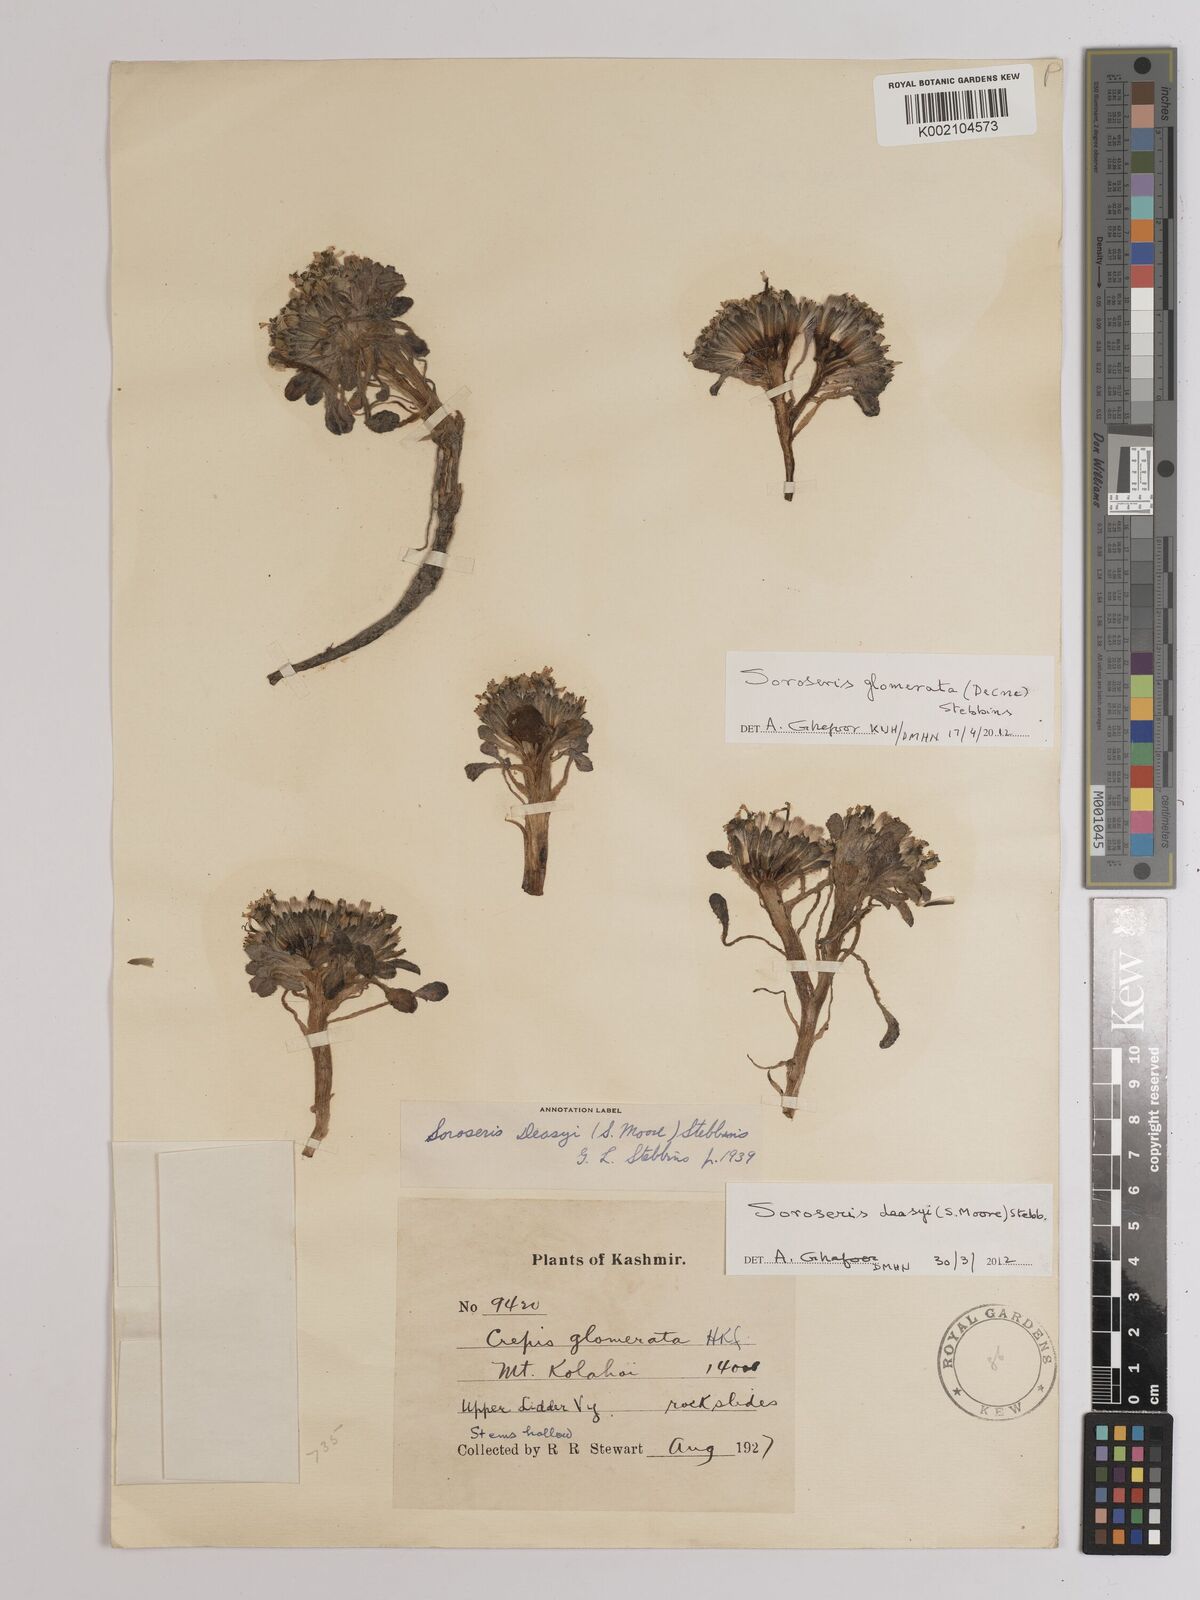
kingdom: Plantae
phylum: Tracheophyta
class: Magnoliopsida
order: Asterales
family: Asteraceae
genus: Soroseris
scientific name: Soroseris deasyi
